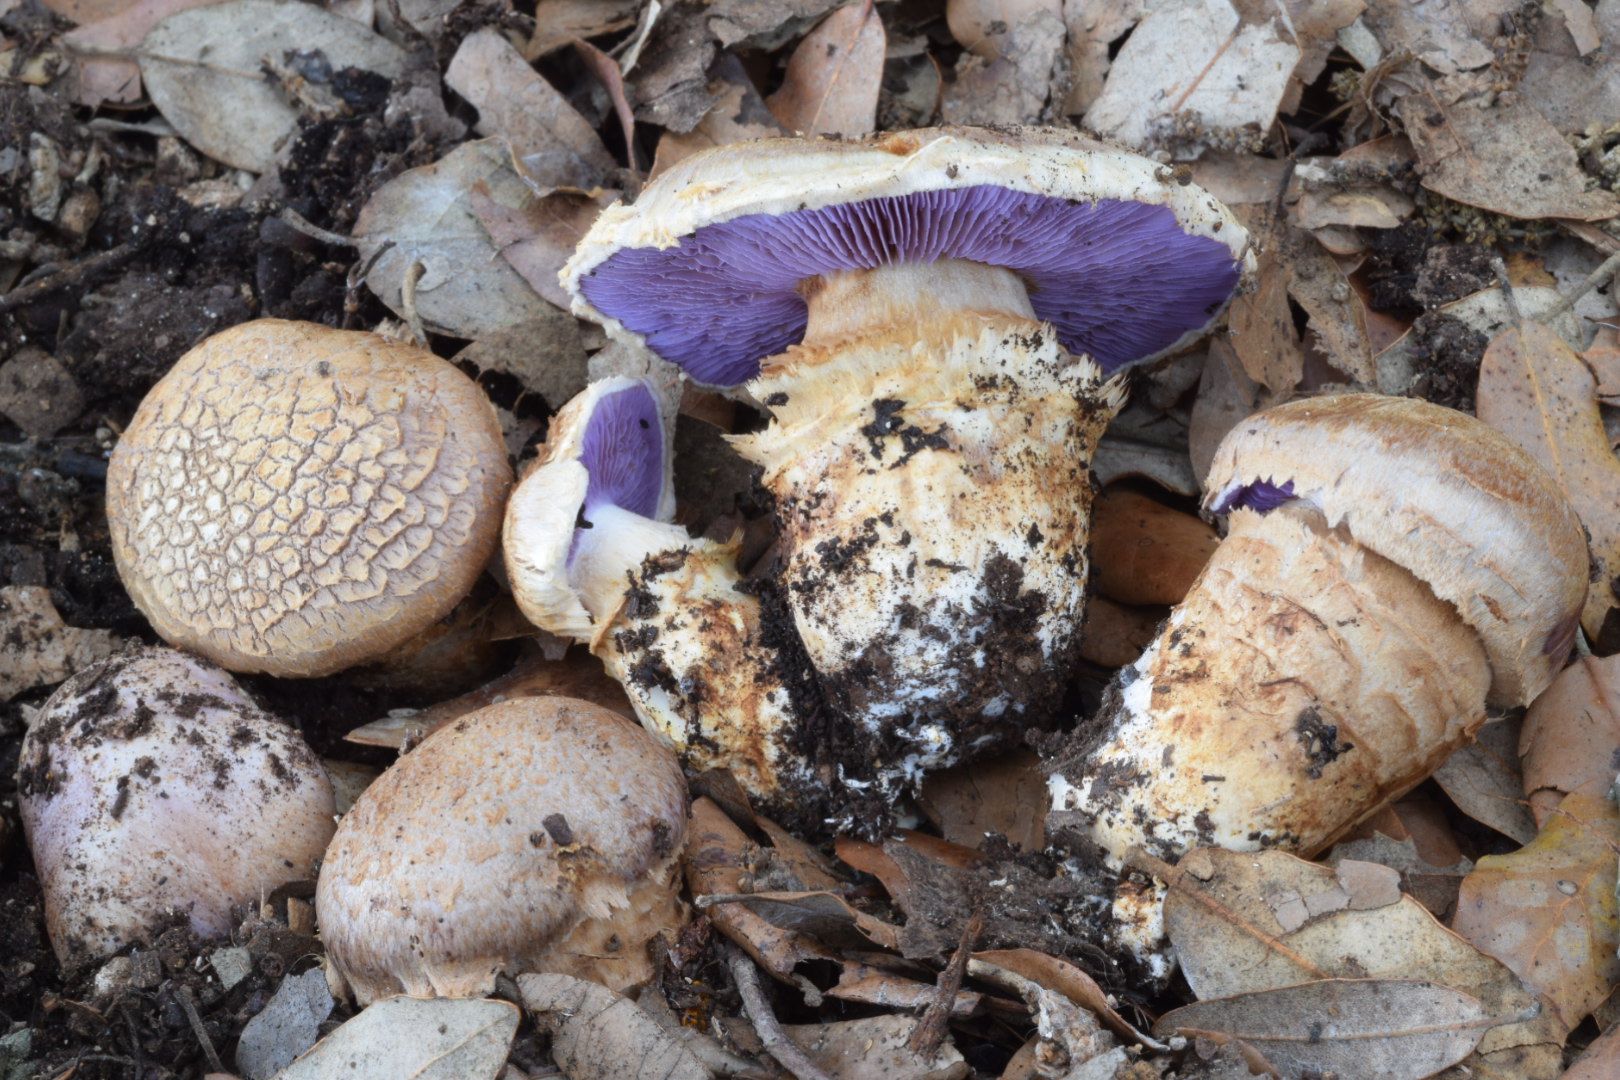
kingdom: Fungi
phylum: Basidiomycota
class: Agaricomycetes
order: Agaricales
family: Cortinariaceae
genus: Phlegmacium
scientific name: Phlegmacium caligatum
